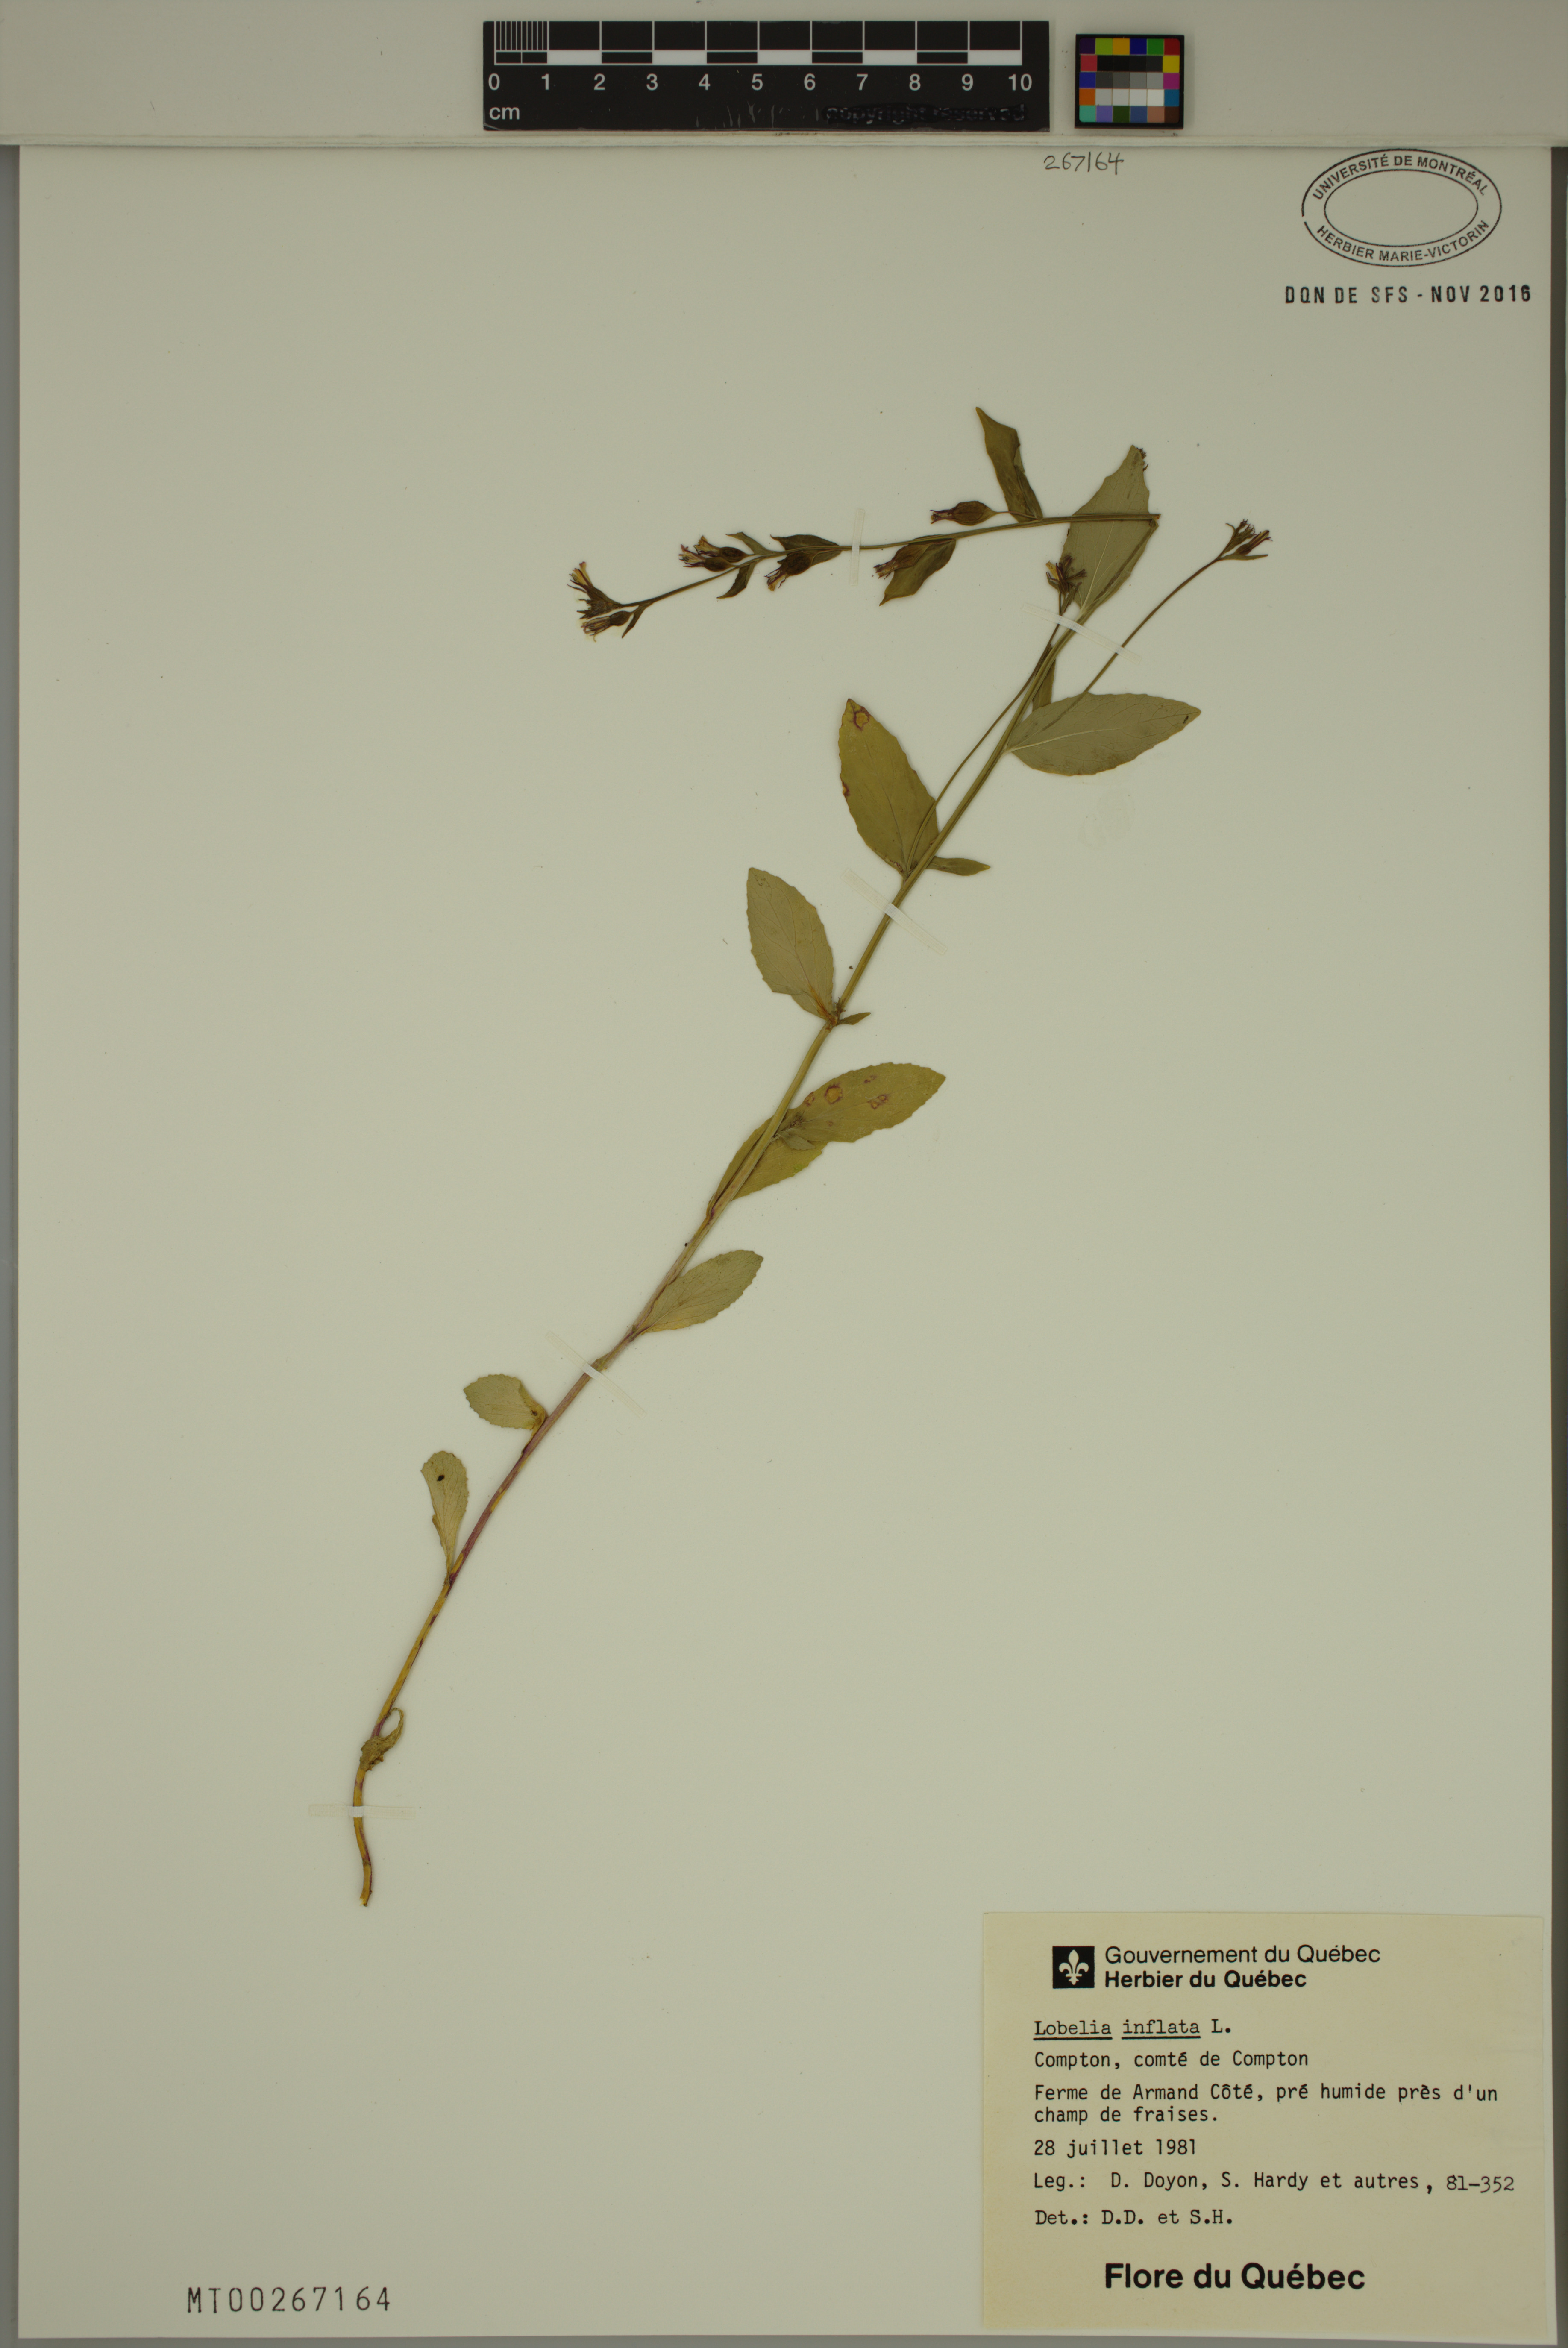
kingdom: Plantae
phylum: Tracheophyta
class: Magnoliopsida
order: Asterales
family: Campanulaceae
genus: Lobelia
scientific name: Lobelia inflata
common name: Indian tobacco
